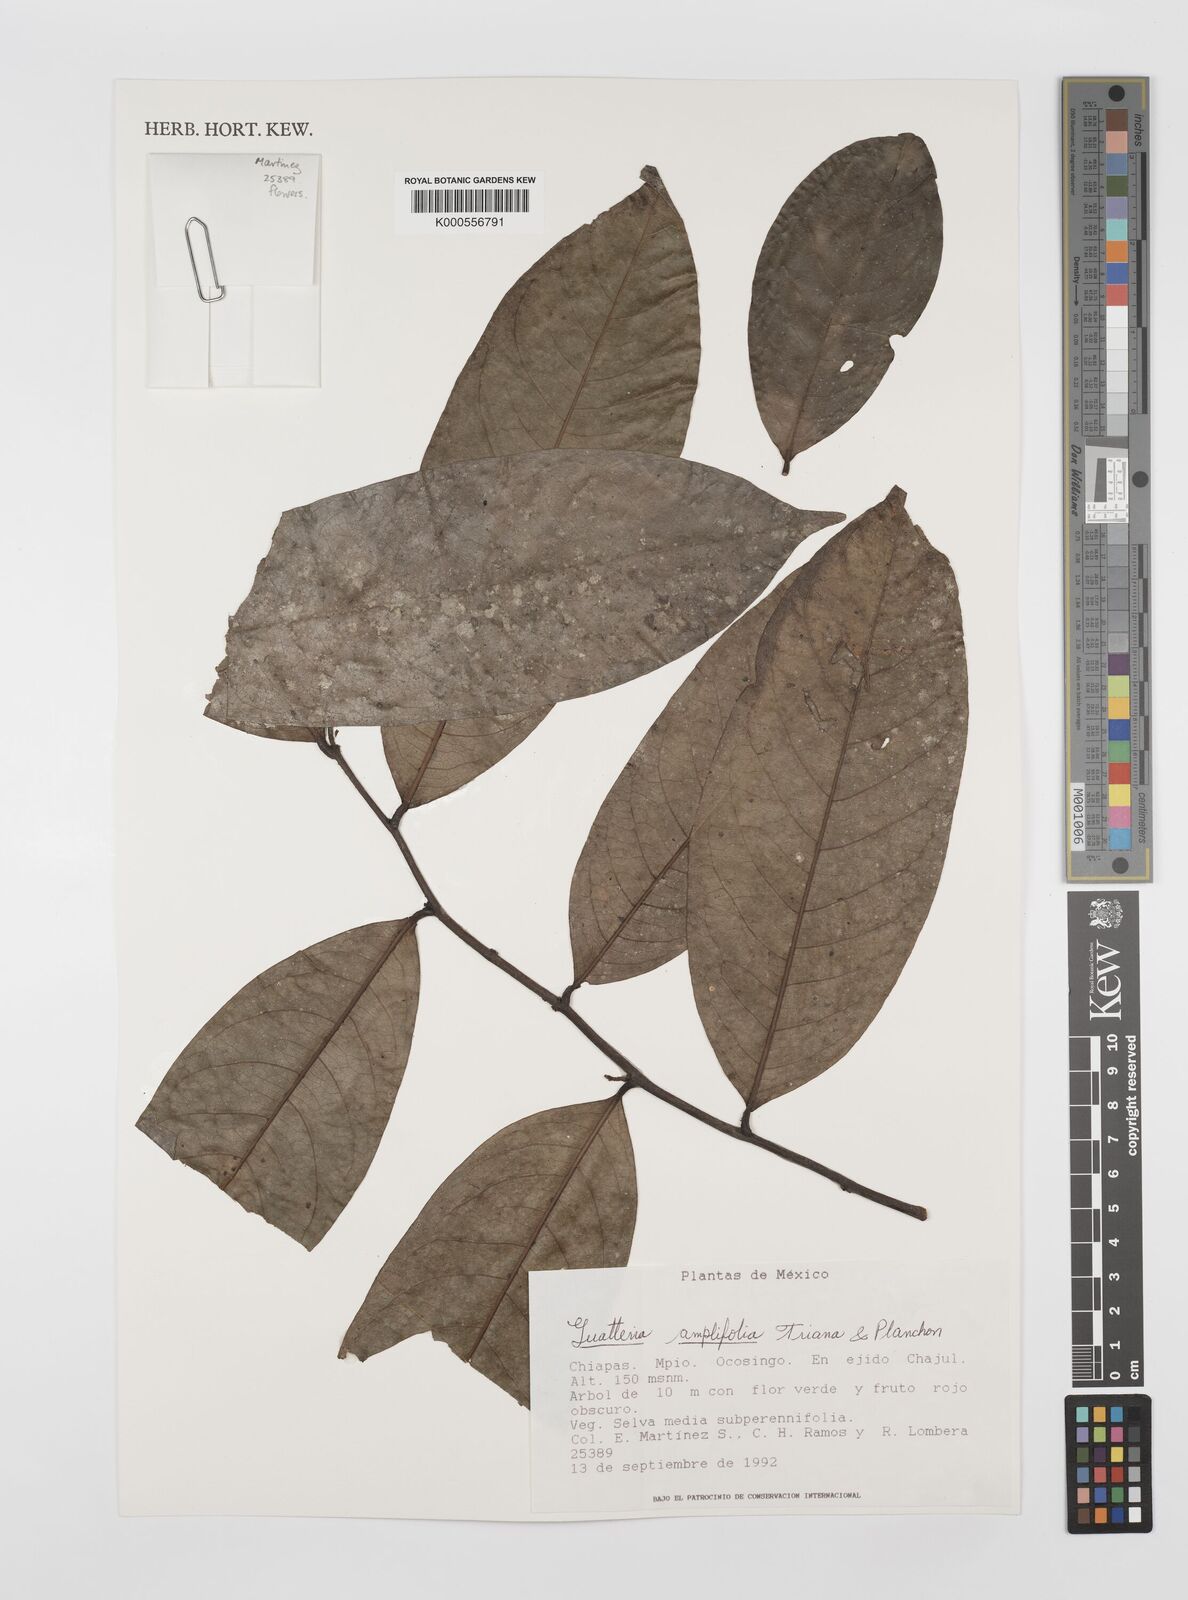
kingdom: Plantae
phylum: Tracheophyta
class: Magnoliopsida
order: Magnoliales
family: Annonaceae
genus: Guatteria
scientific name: Guatteria amplifolia
